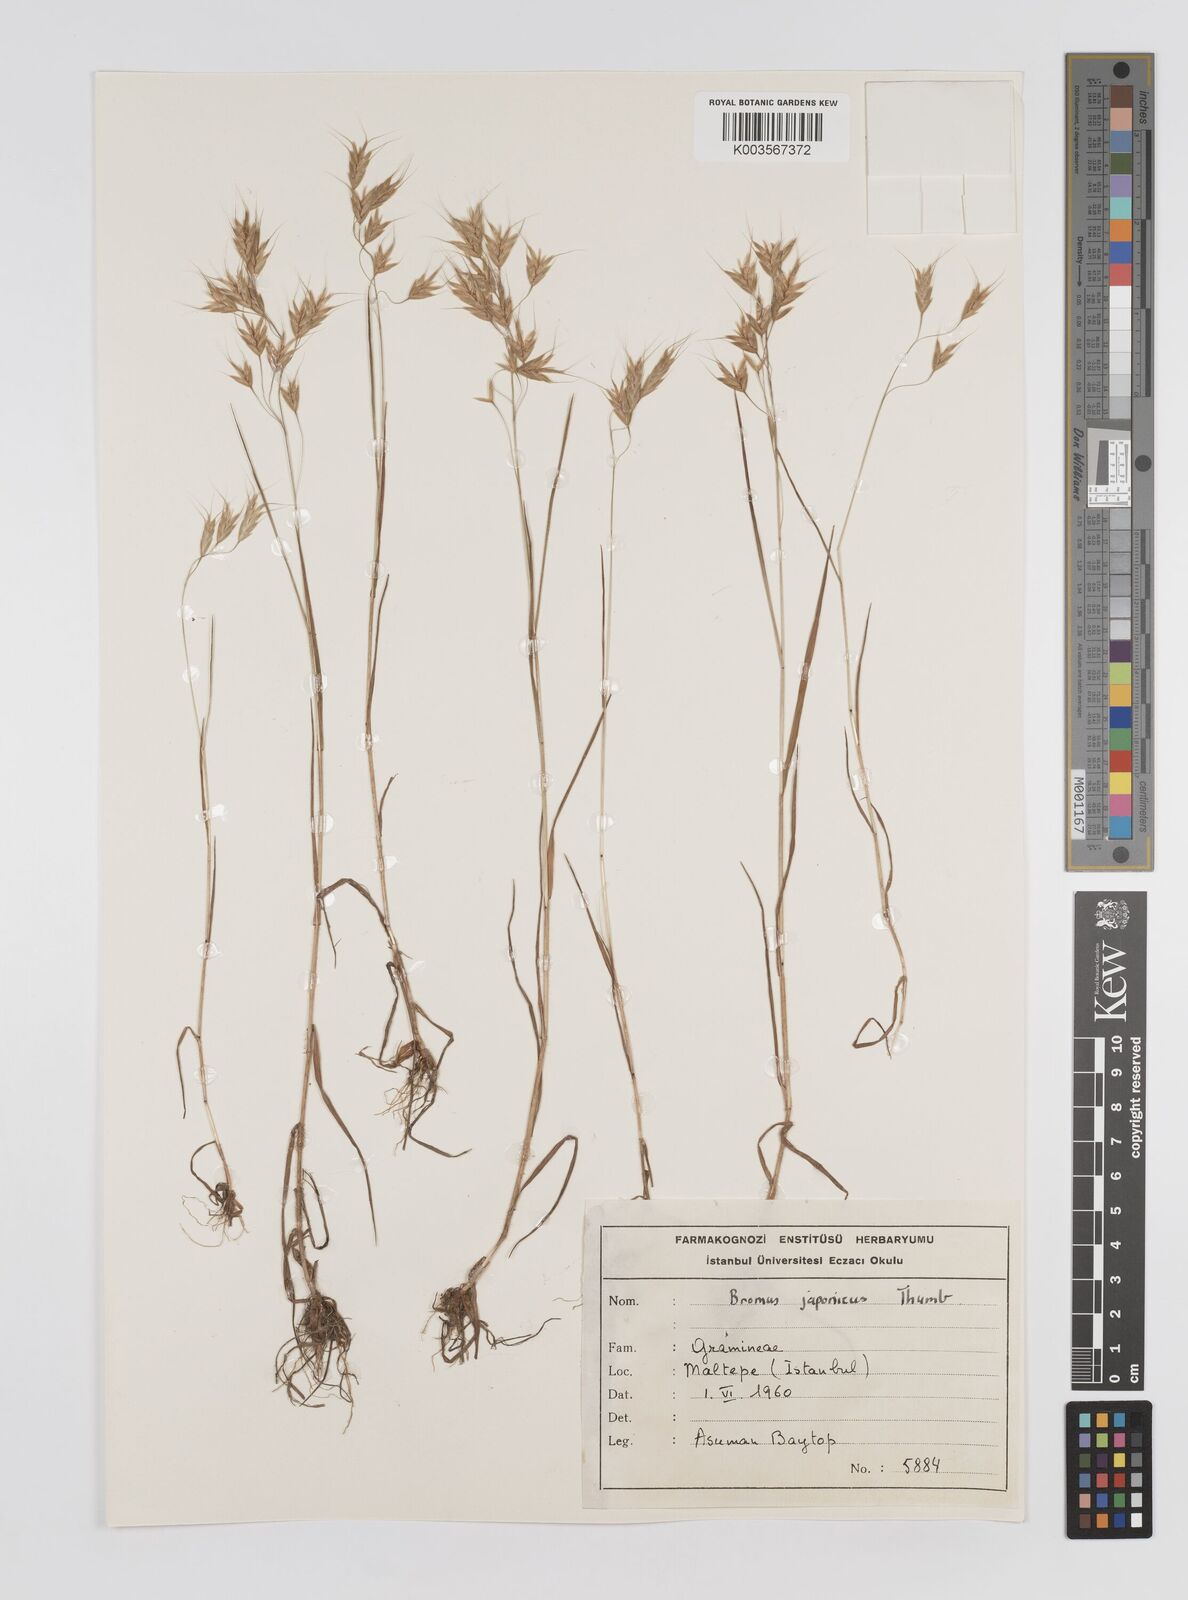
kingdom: Plantae
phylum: Tracheophyta
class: Liliopsida
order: Poales
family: Poaceae
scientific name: Poaceae
